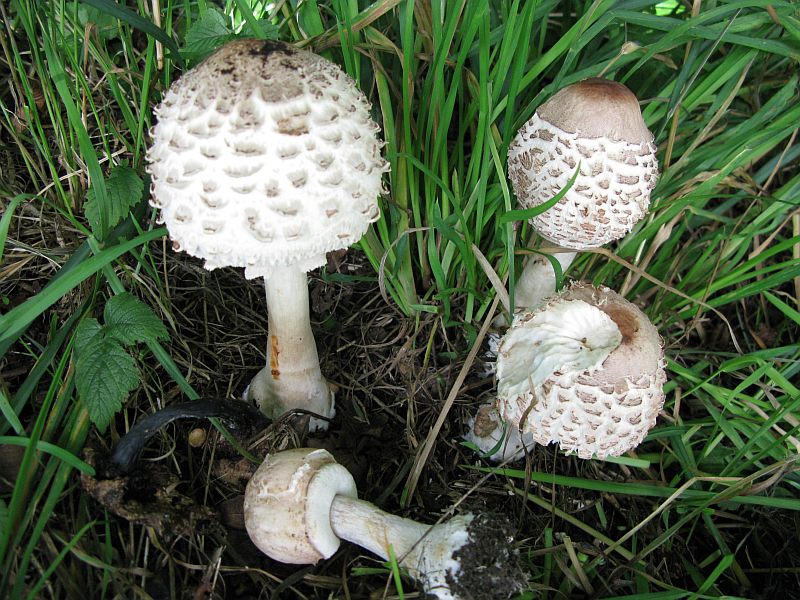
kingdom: Fungi
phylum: Basidiomycota
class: Agaricomycetes
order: Agaricales
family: Agaricaceae
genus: Chlorophyllum
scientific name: Chlorophyllum rhacodes
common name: ægte rabarberhat
